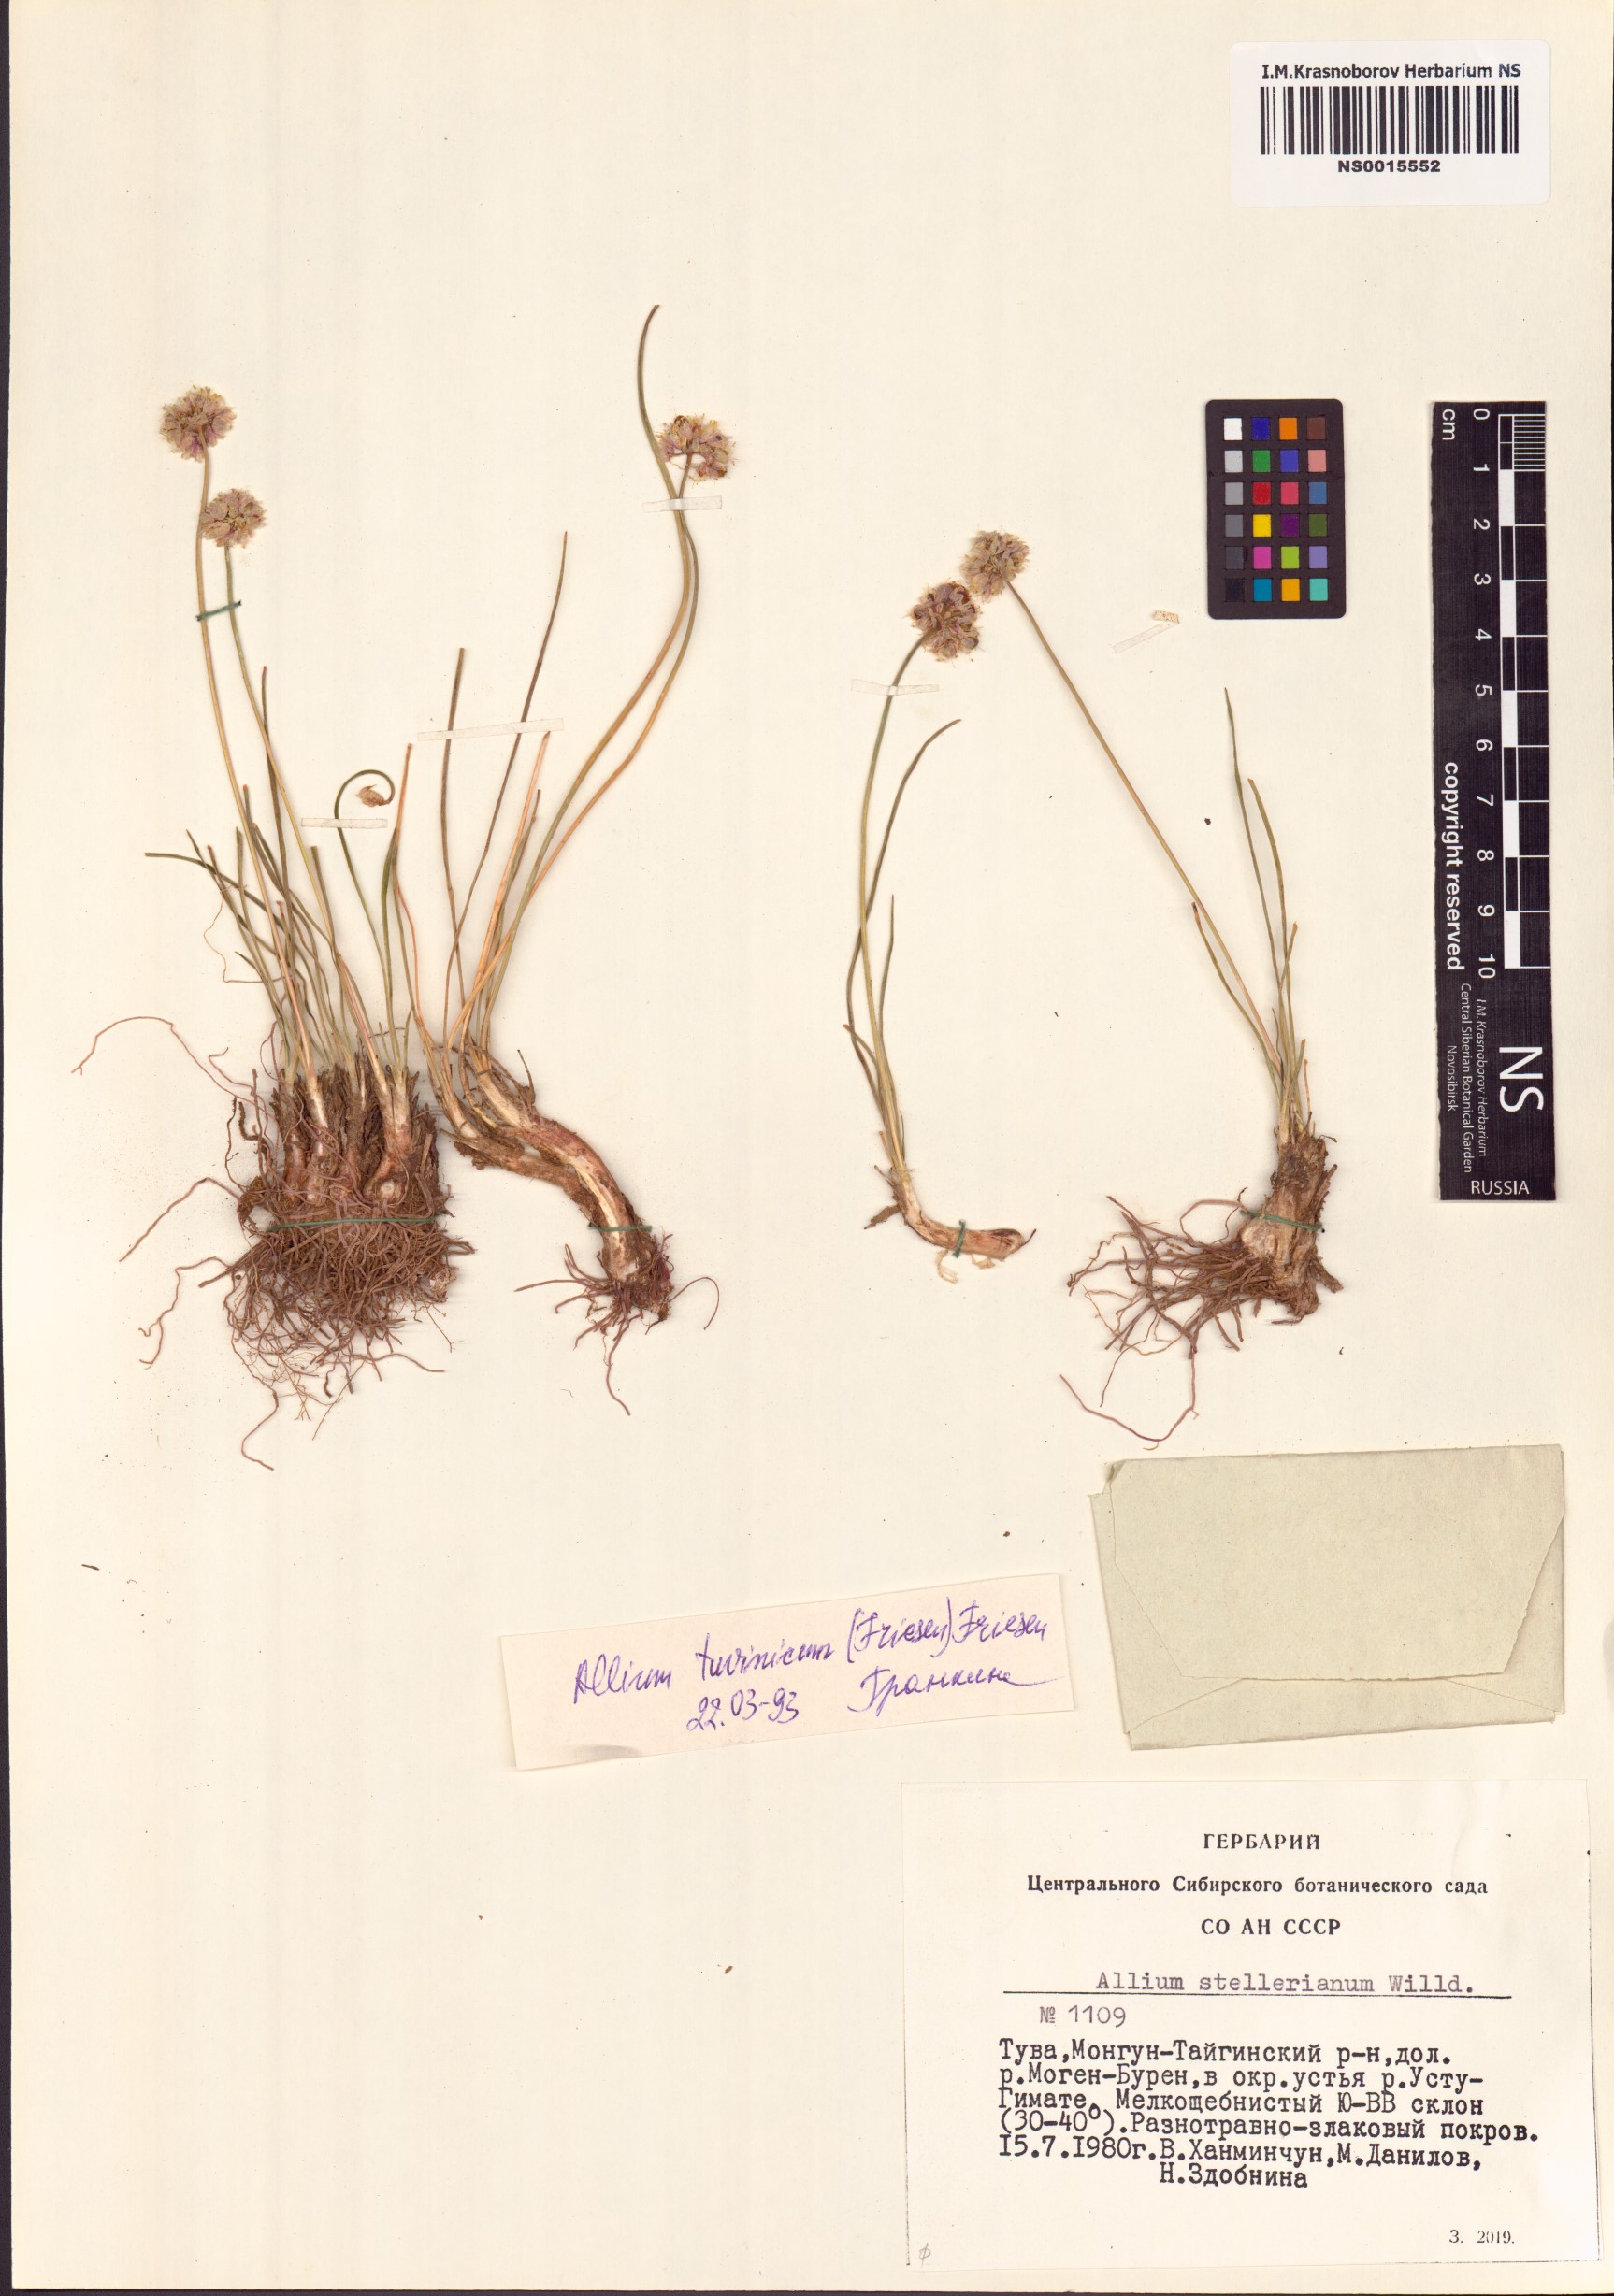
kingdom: Plantae
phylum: Tracheophyta
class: Liliopsida
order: Asparagales
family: Amaryllidaceae
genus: Allium
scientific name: Allium tuvinicum
